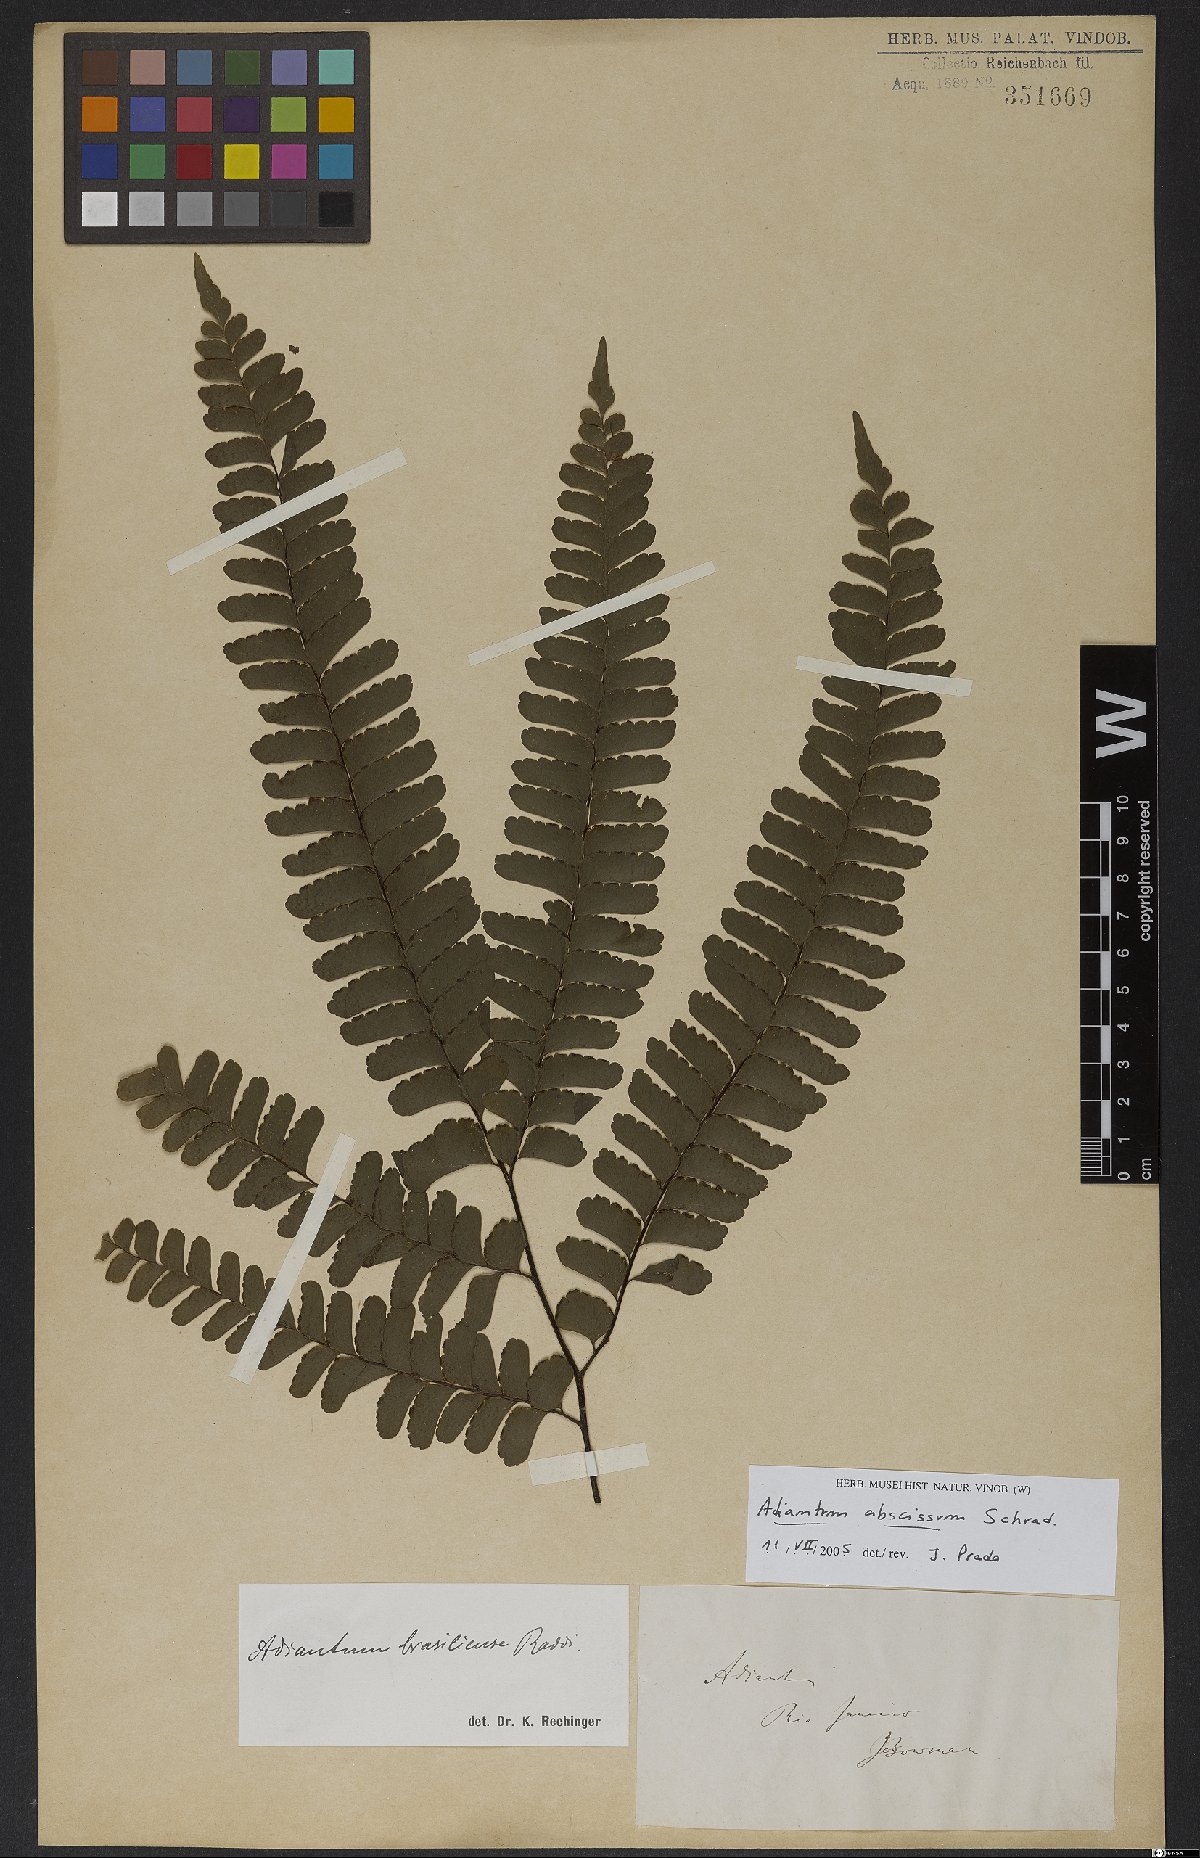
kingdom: Plantae
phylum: Tracheophyta
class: Polypodiopsida
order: Polypodiales
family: Pteridaceae
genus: Adiantum
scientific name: Adiantum abscissum
